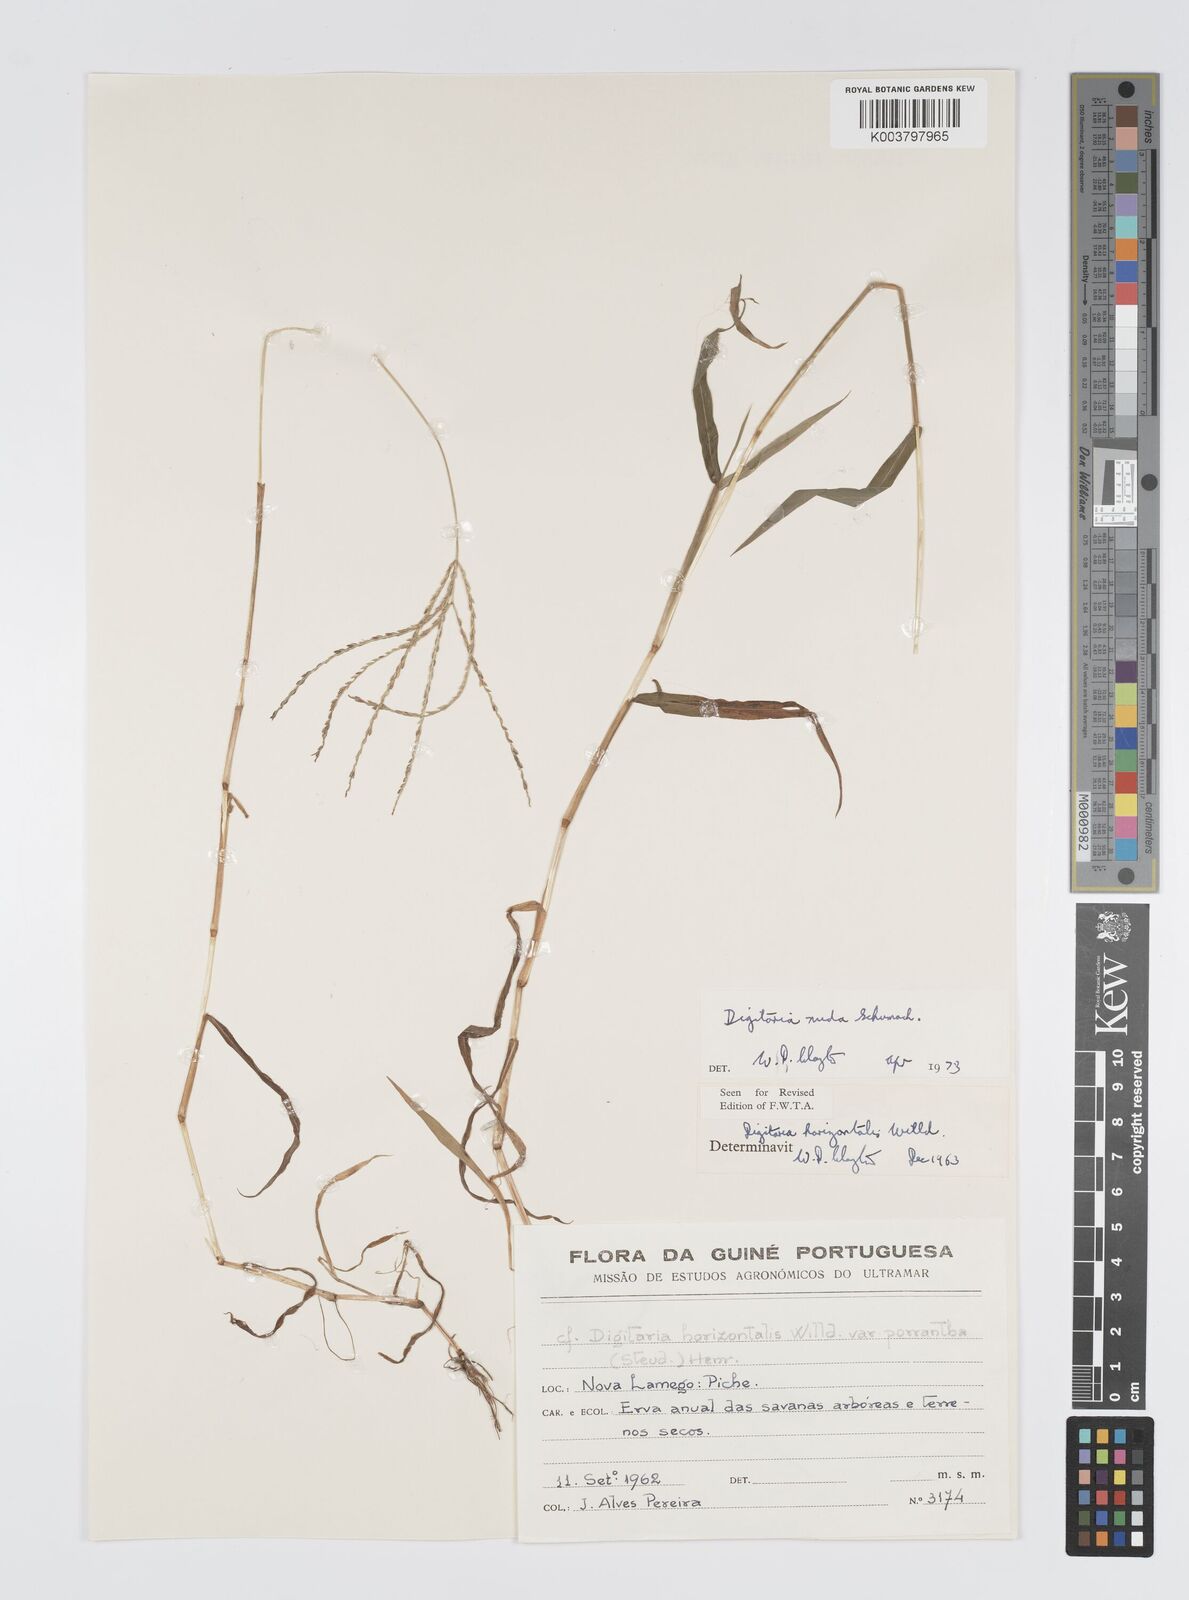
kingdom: Plantae
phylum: Tracheophyta
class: Liliopsida
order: Poales
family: Poaceae
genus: Digitaria
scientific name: Digitaria nuda
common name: Naked crabgrass
